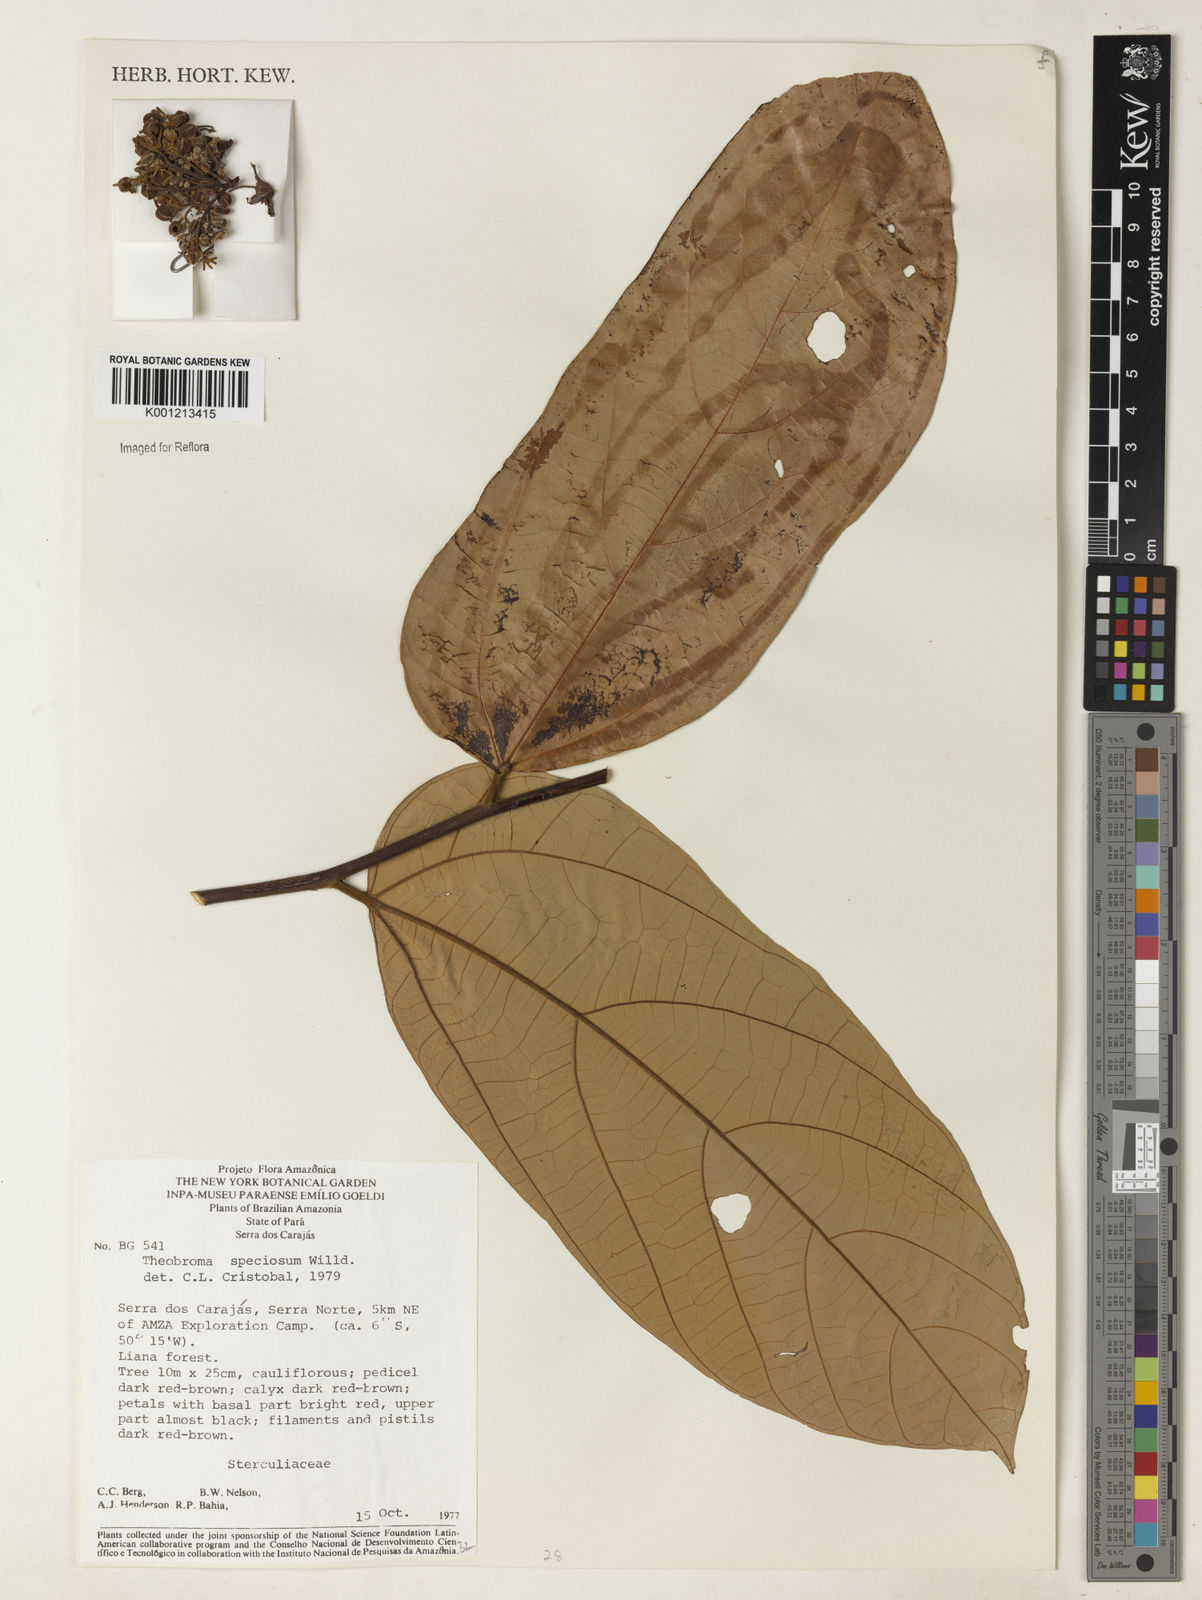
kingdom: Plantae
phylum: Tracheophyta
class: Magnoliopsida
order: Malvales
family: Malvaceae
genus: Theobroma
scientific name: Theobroma speciosum
